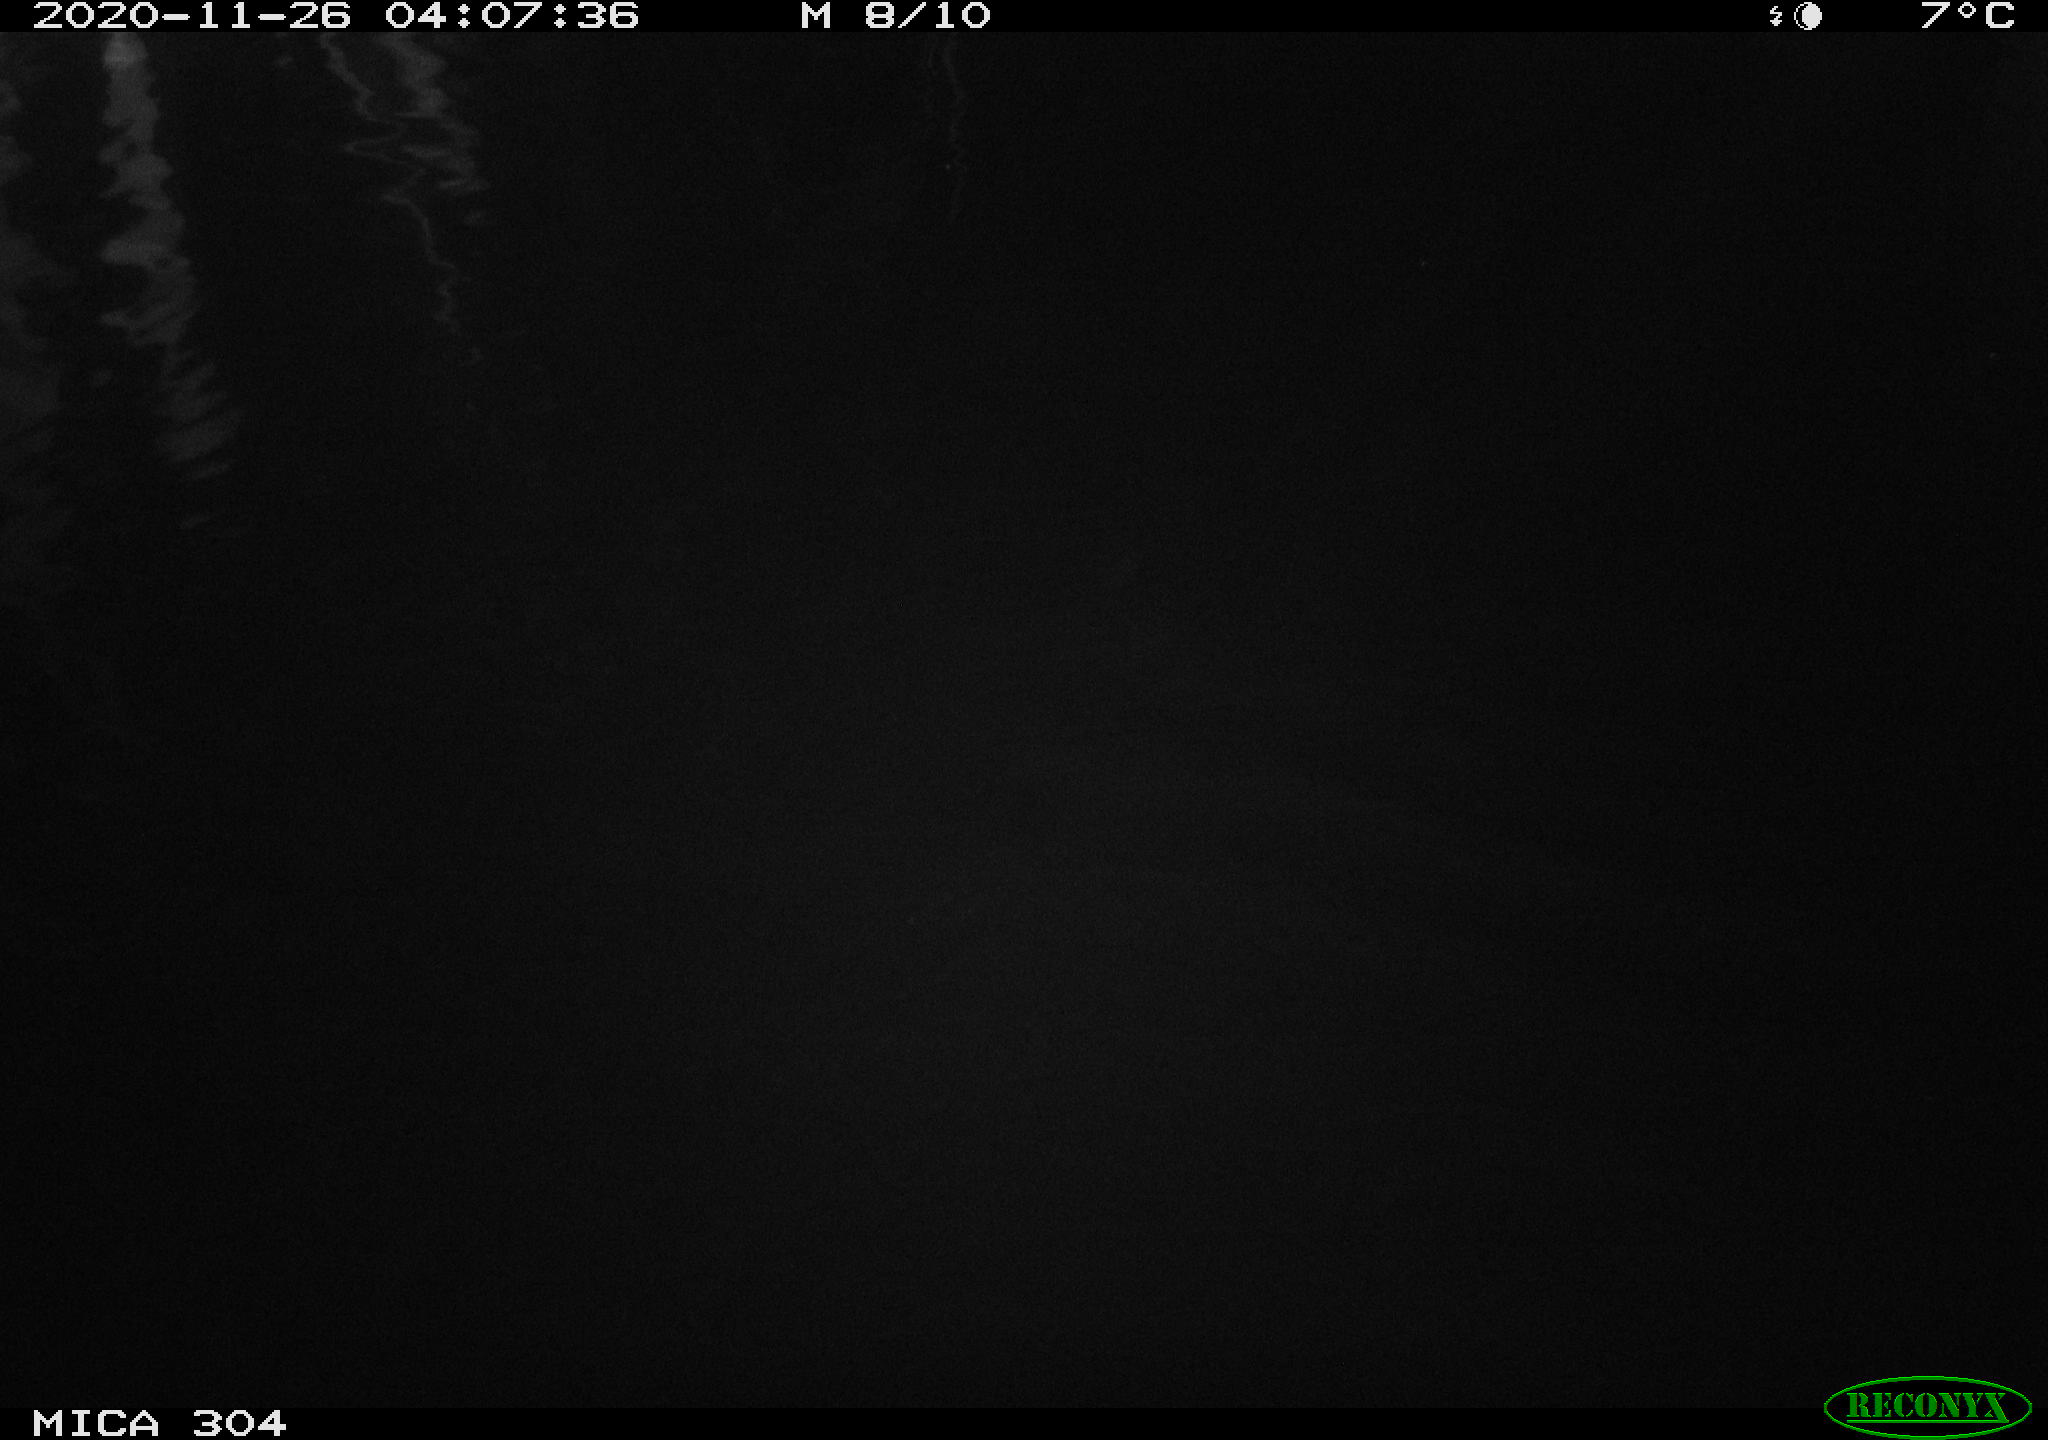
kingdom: Animalia
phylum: Chordata
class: Aves
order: Anseriformes
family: Anatidae
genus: Anas
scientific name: Anas platyrhynchos
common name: Mallard
